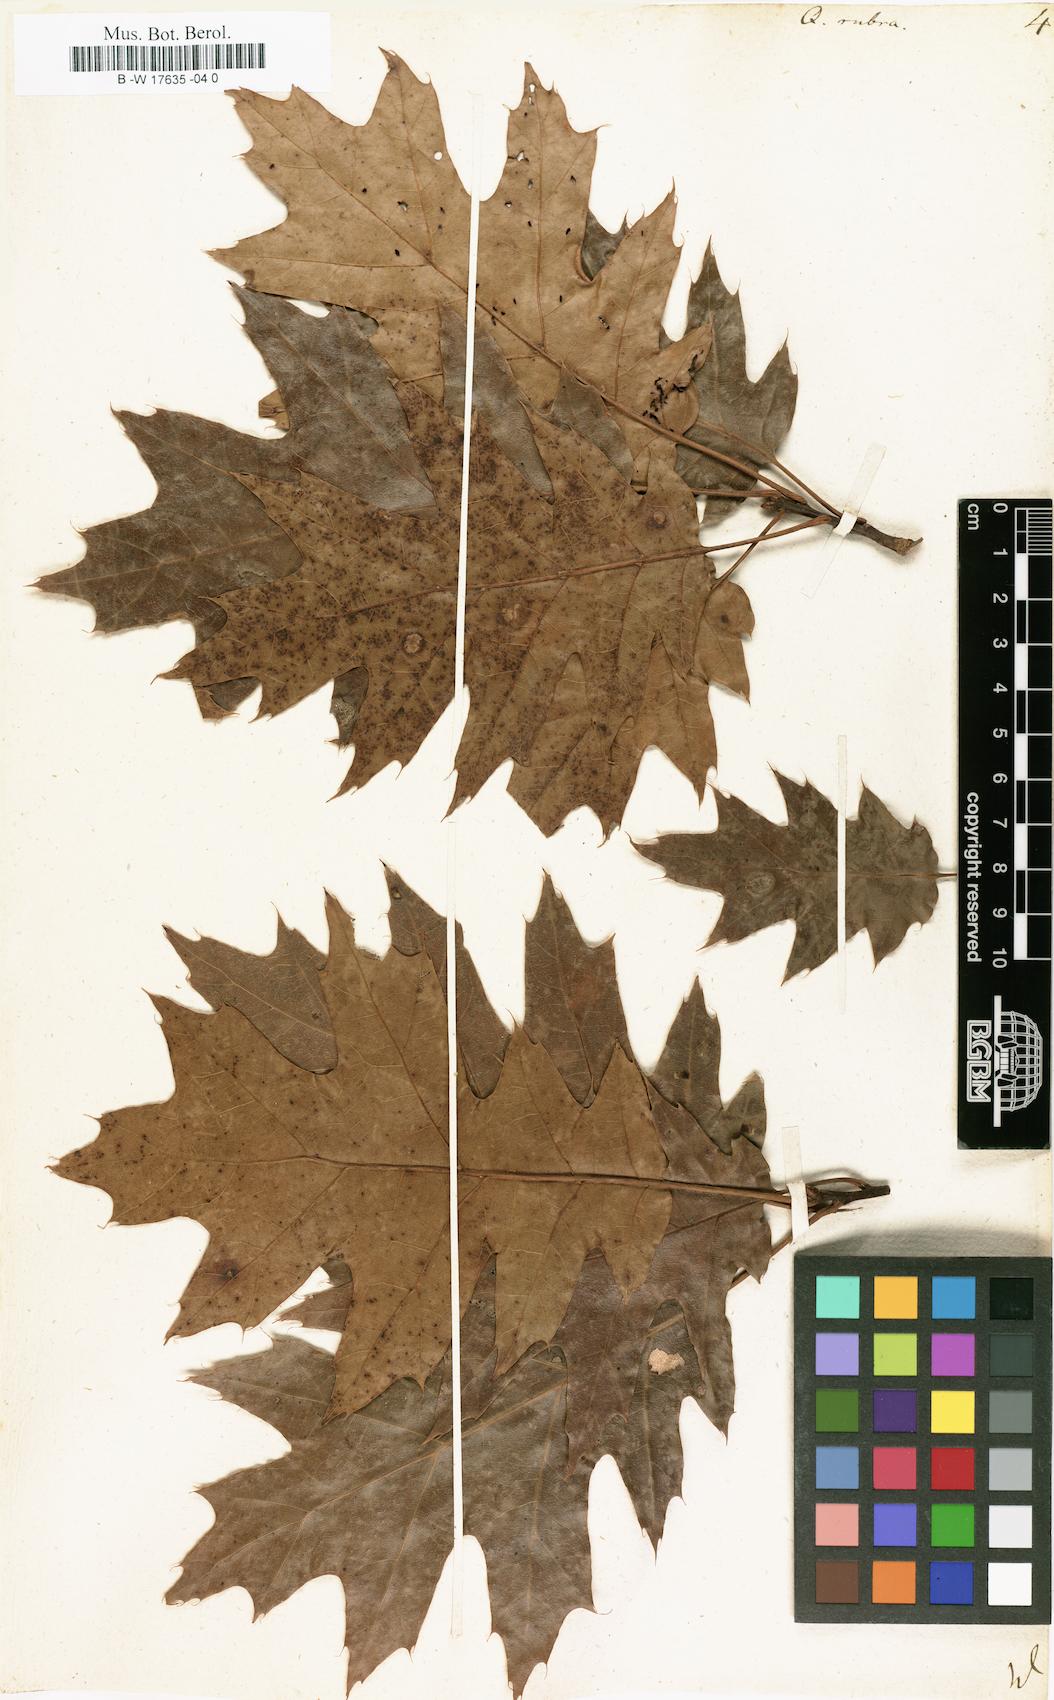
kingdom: Plantae
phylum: Tracheophyta
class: Magnoliopsida
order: Fagales
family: Fagaceae
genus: Quercus
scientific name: Quercus rubra
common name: Red oak
